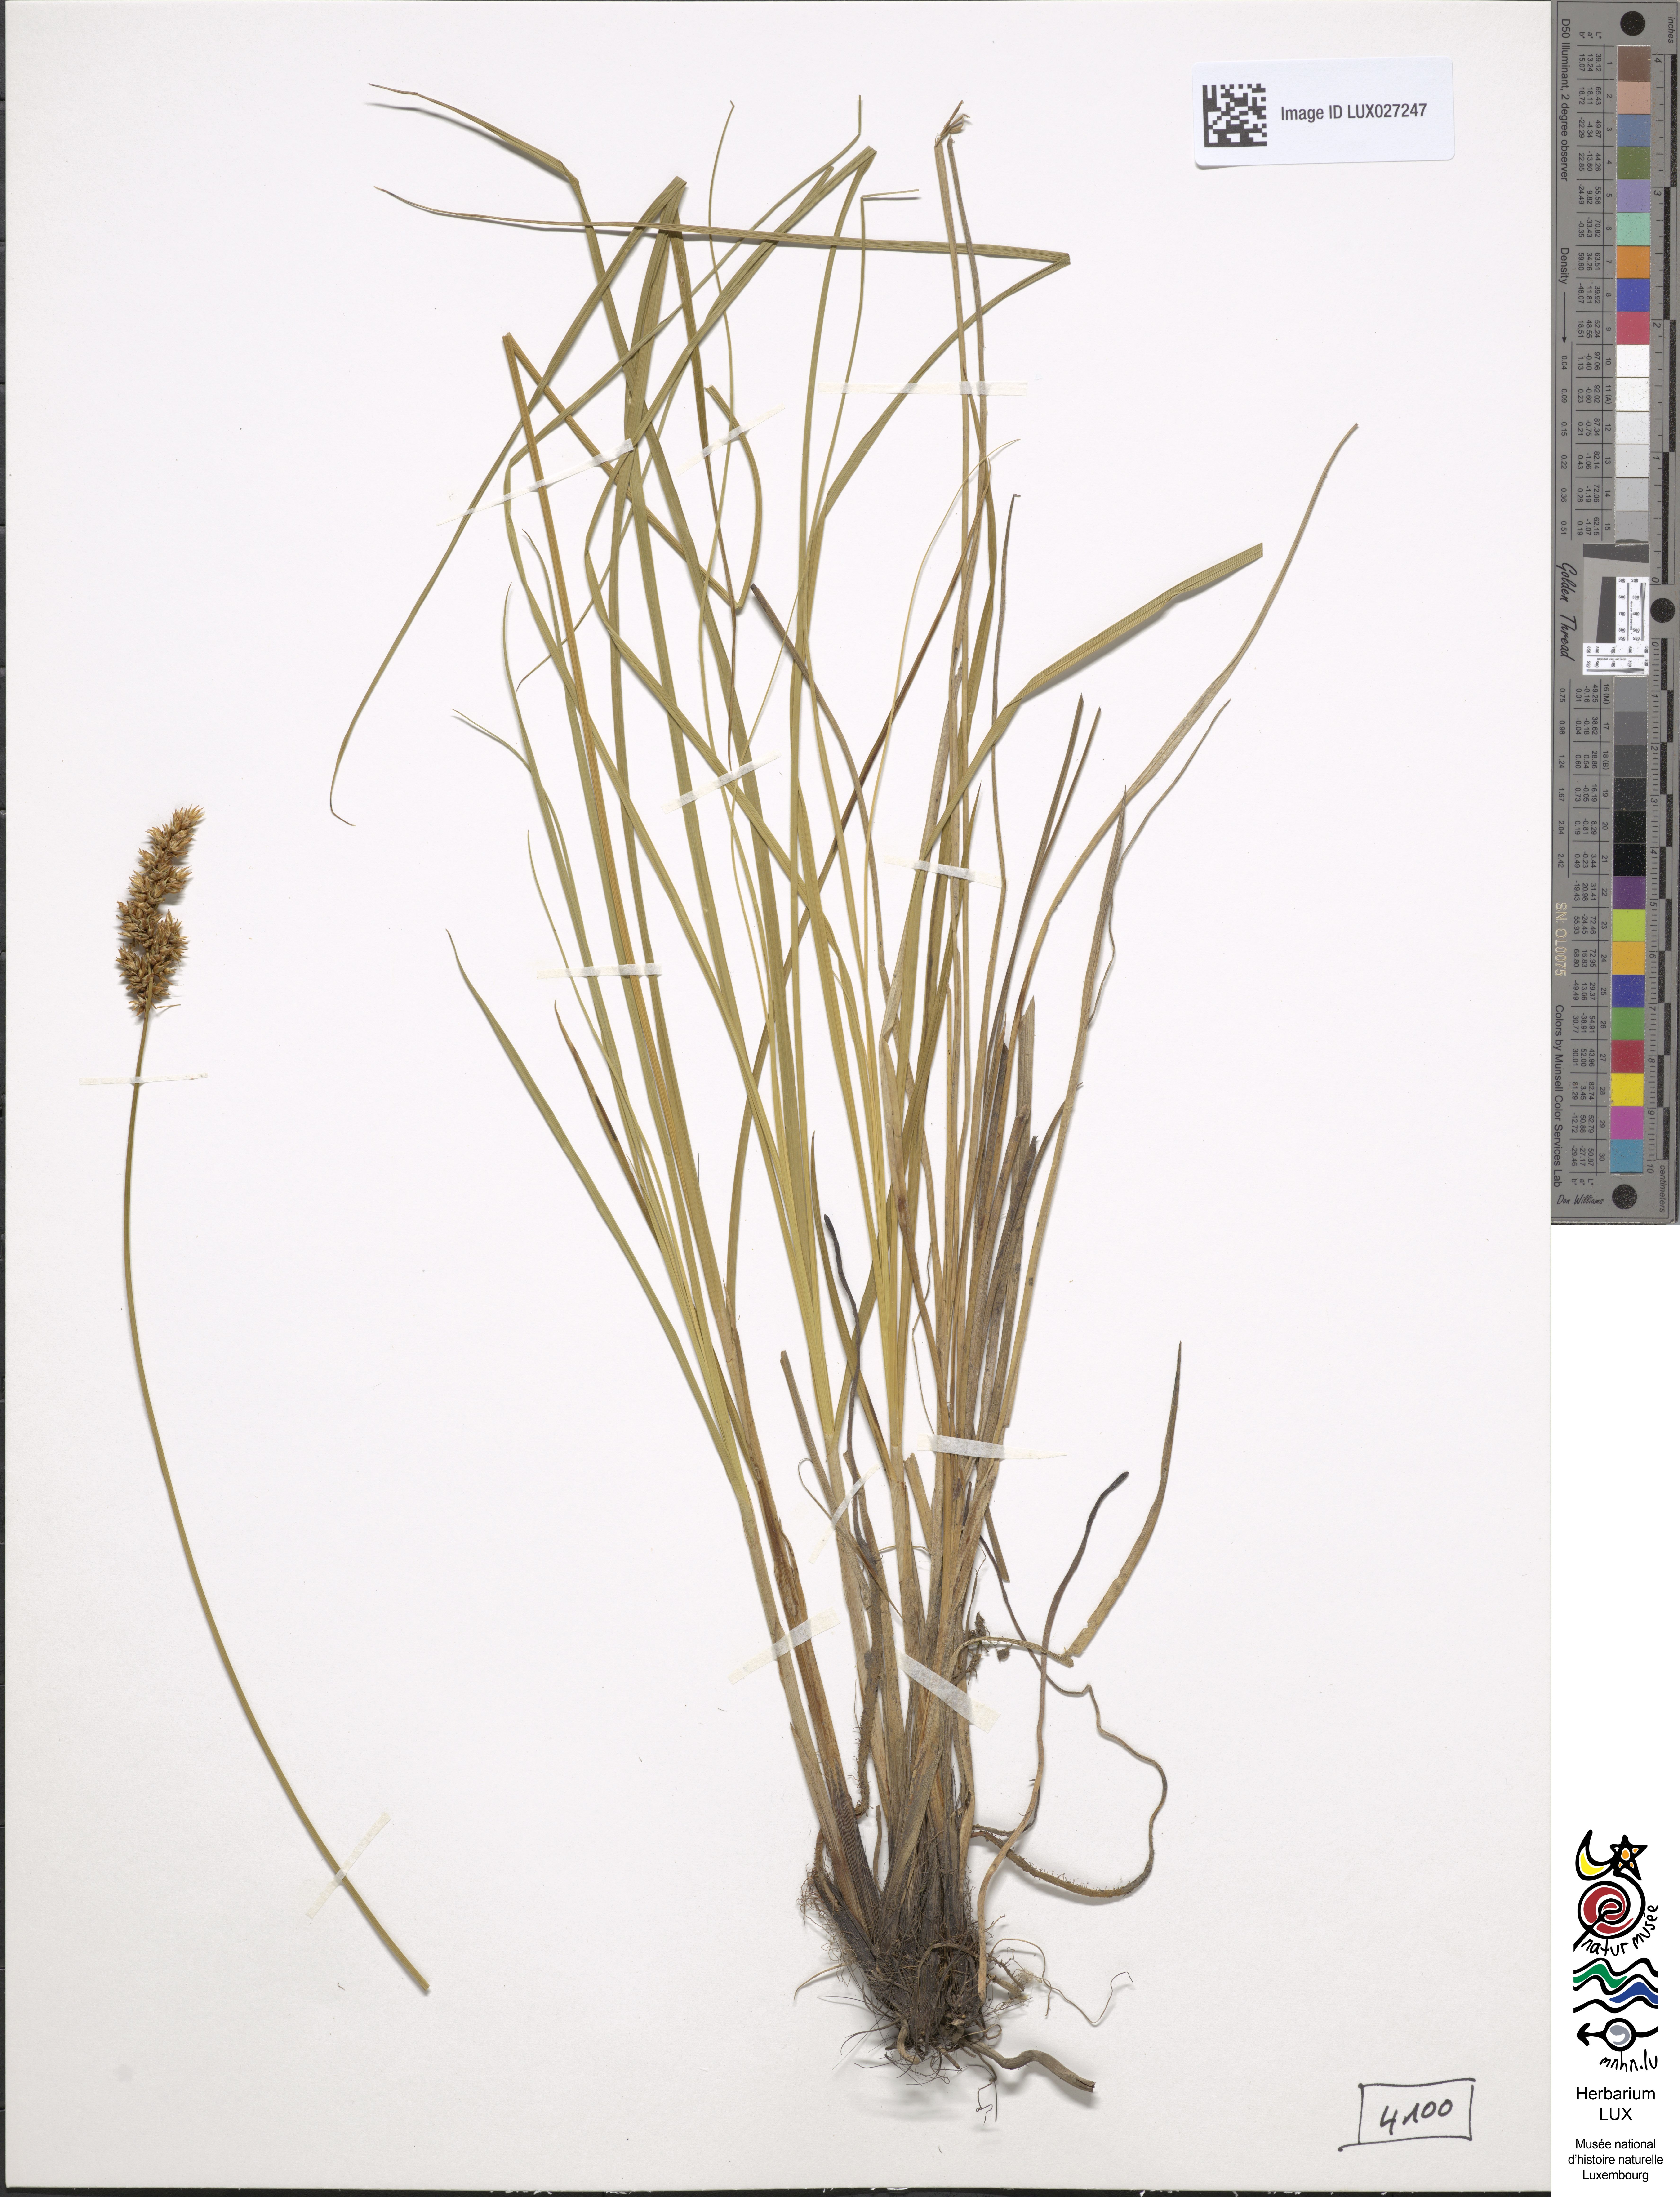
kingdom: Plantae
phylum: Tracheophyta
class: Liliopsida
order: Poales
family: Cyperaceae
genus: Carex
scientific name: Carex appropinquata
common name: Fibrous tussock-sedge
